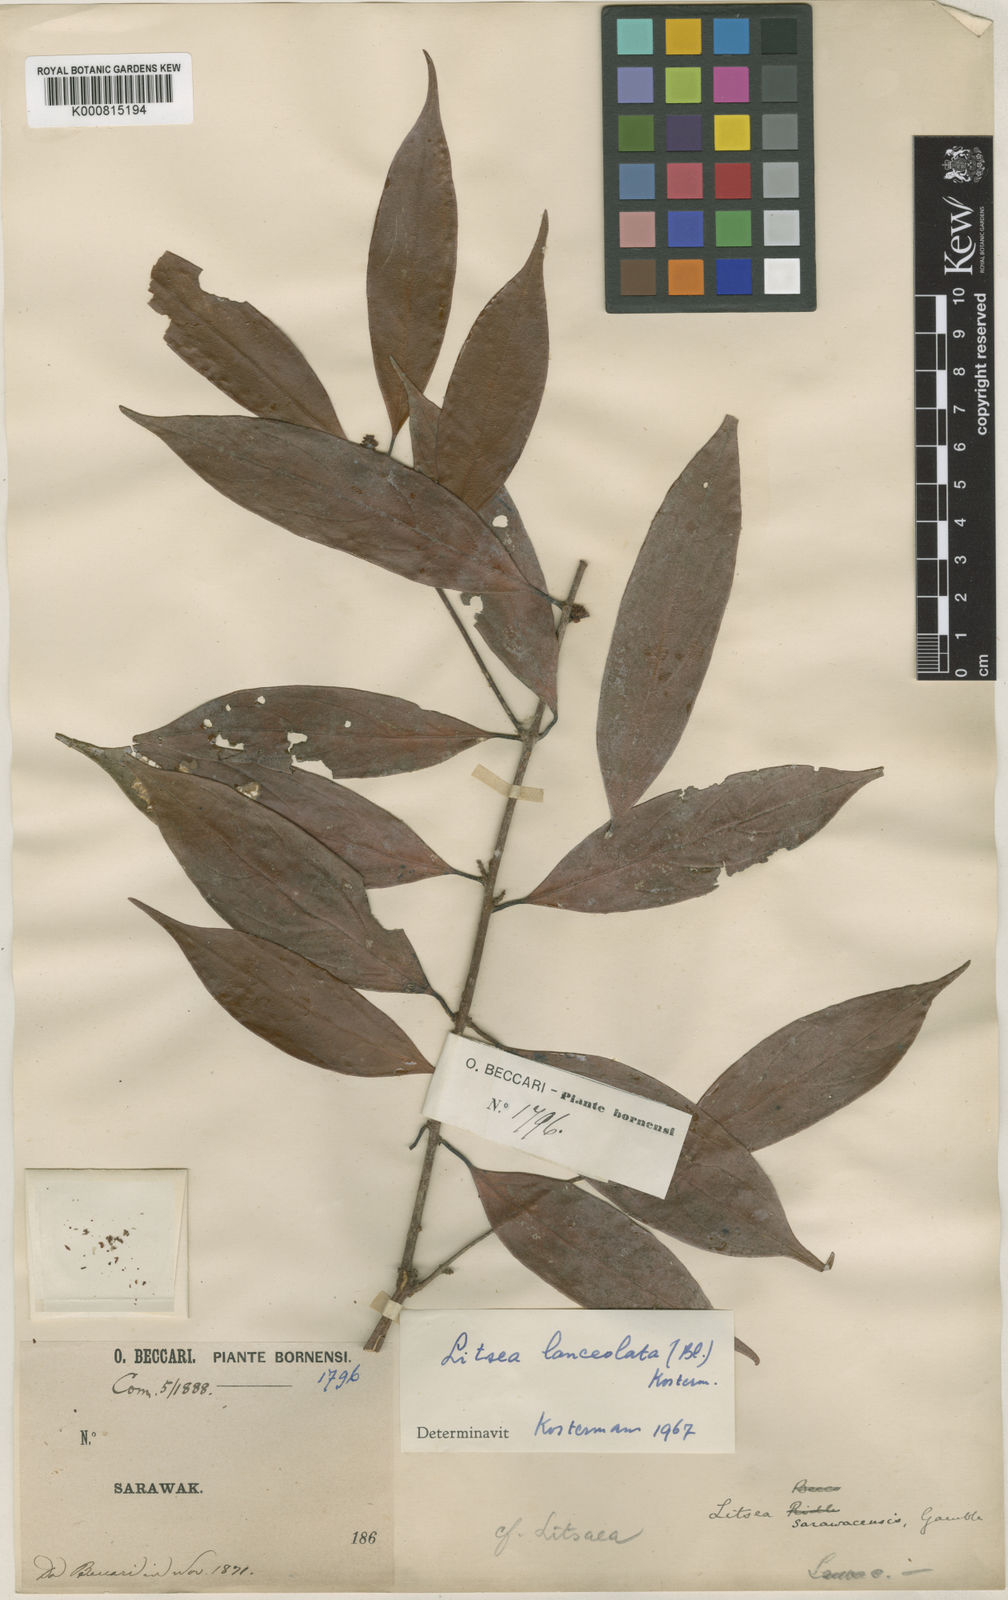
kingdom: Plantae
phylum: Tracheophyta
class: Magnoliopsida
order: Laurales
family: Lauraceae
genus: Litsea
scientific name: Litsea lanceolata
